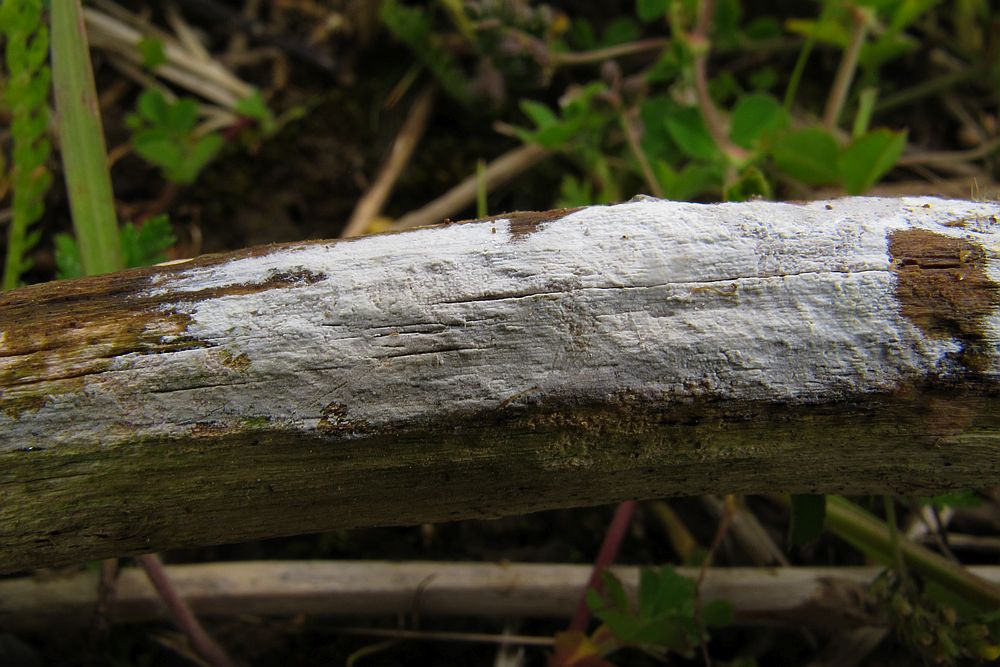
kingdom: Fungi
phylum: Basidiomycota
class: Agaricomycetes
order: Corticiales
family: Corticiaceae
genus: Lyomyces
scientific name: Lyomyces sambuci
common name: almindelig hyldehinde
